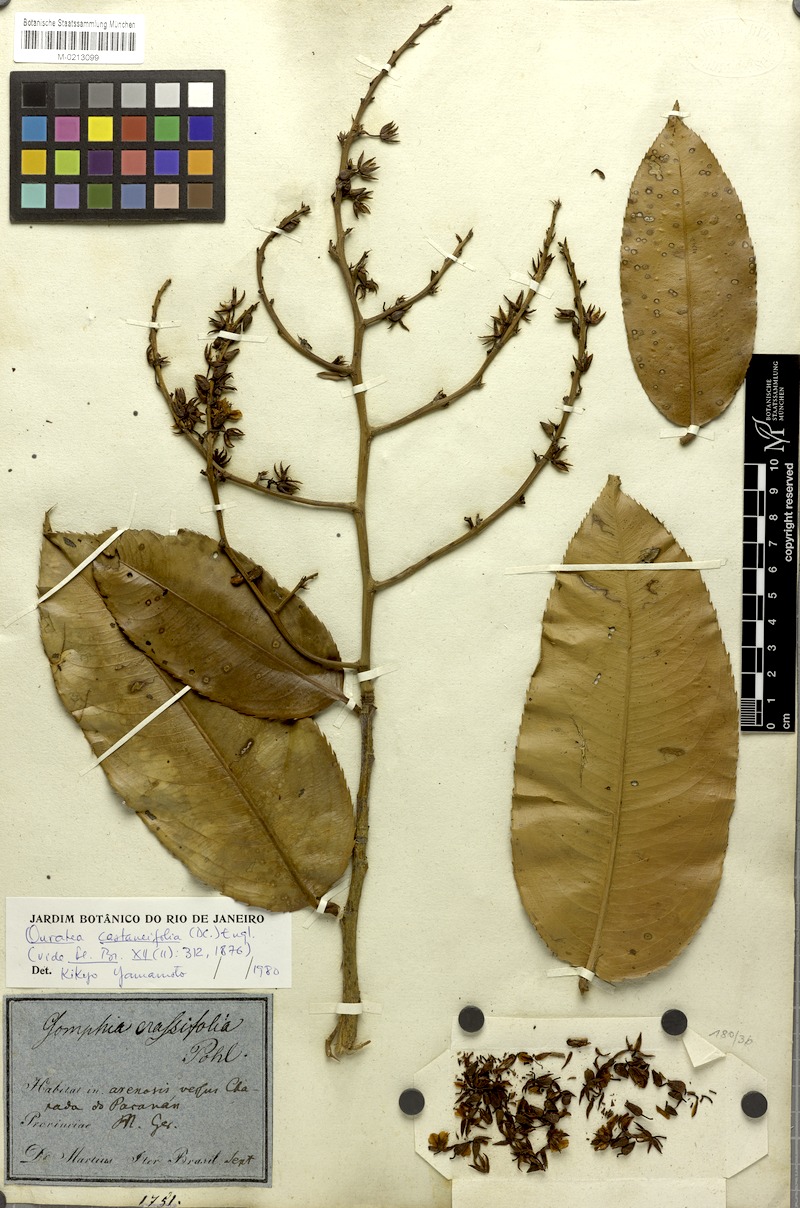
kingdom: Plantae
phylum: Tracheophyta
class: Magnoliopsida
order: Malpighiales
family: Ochnaceae
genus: Ouratea
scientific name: Ouratea castaneifolia
